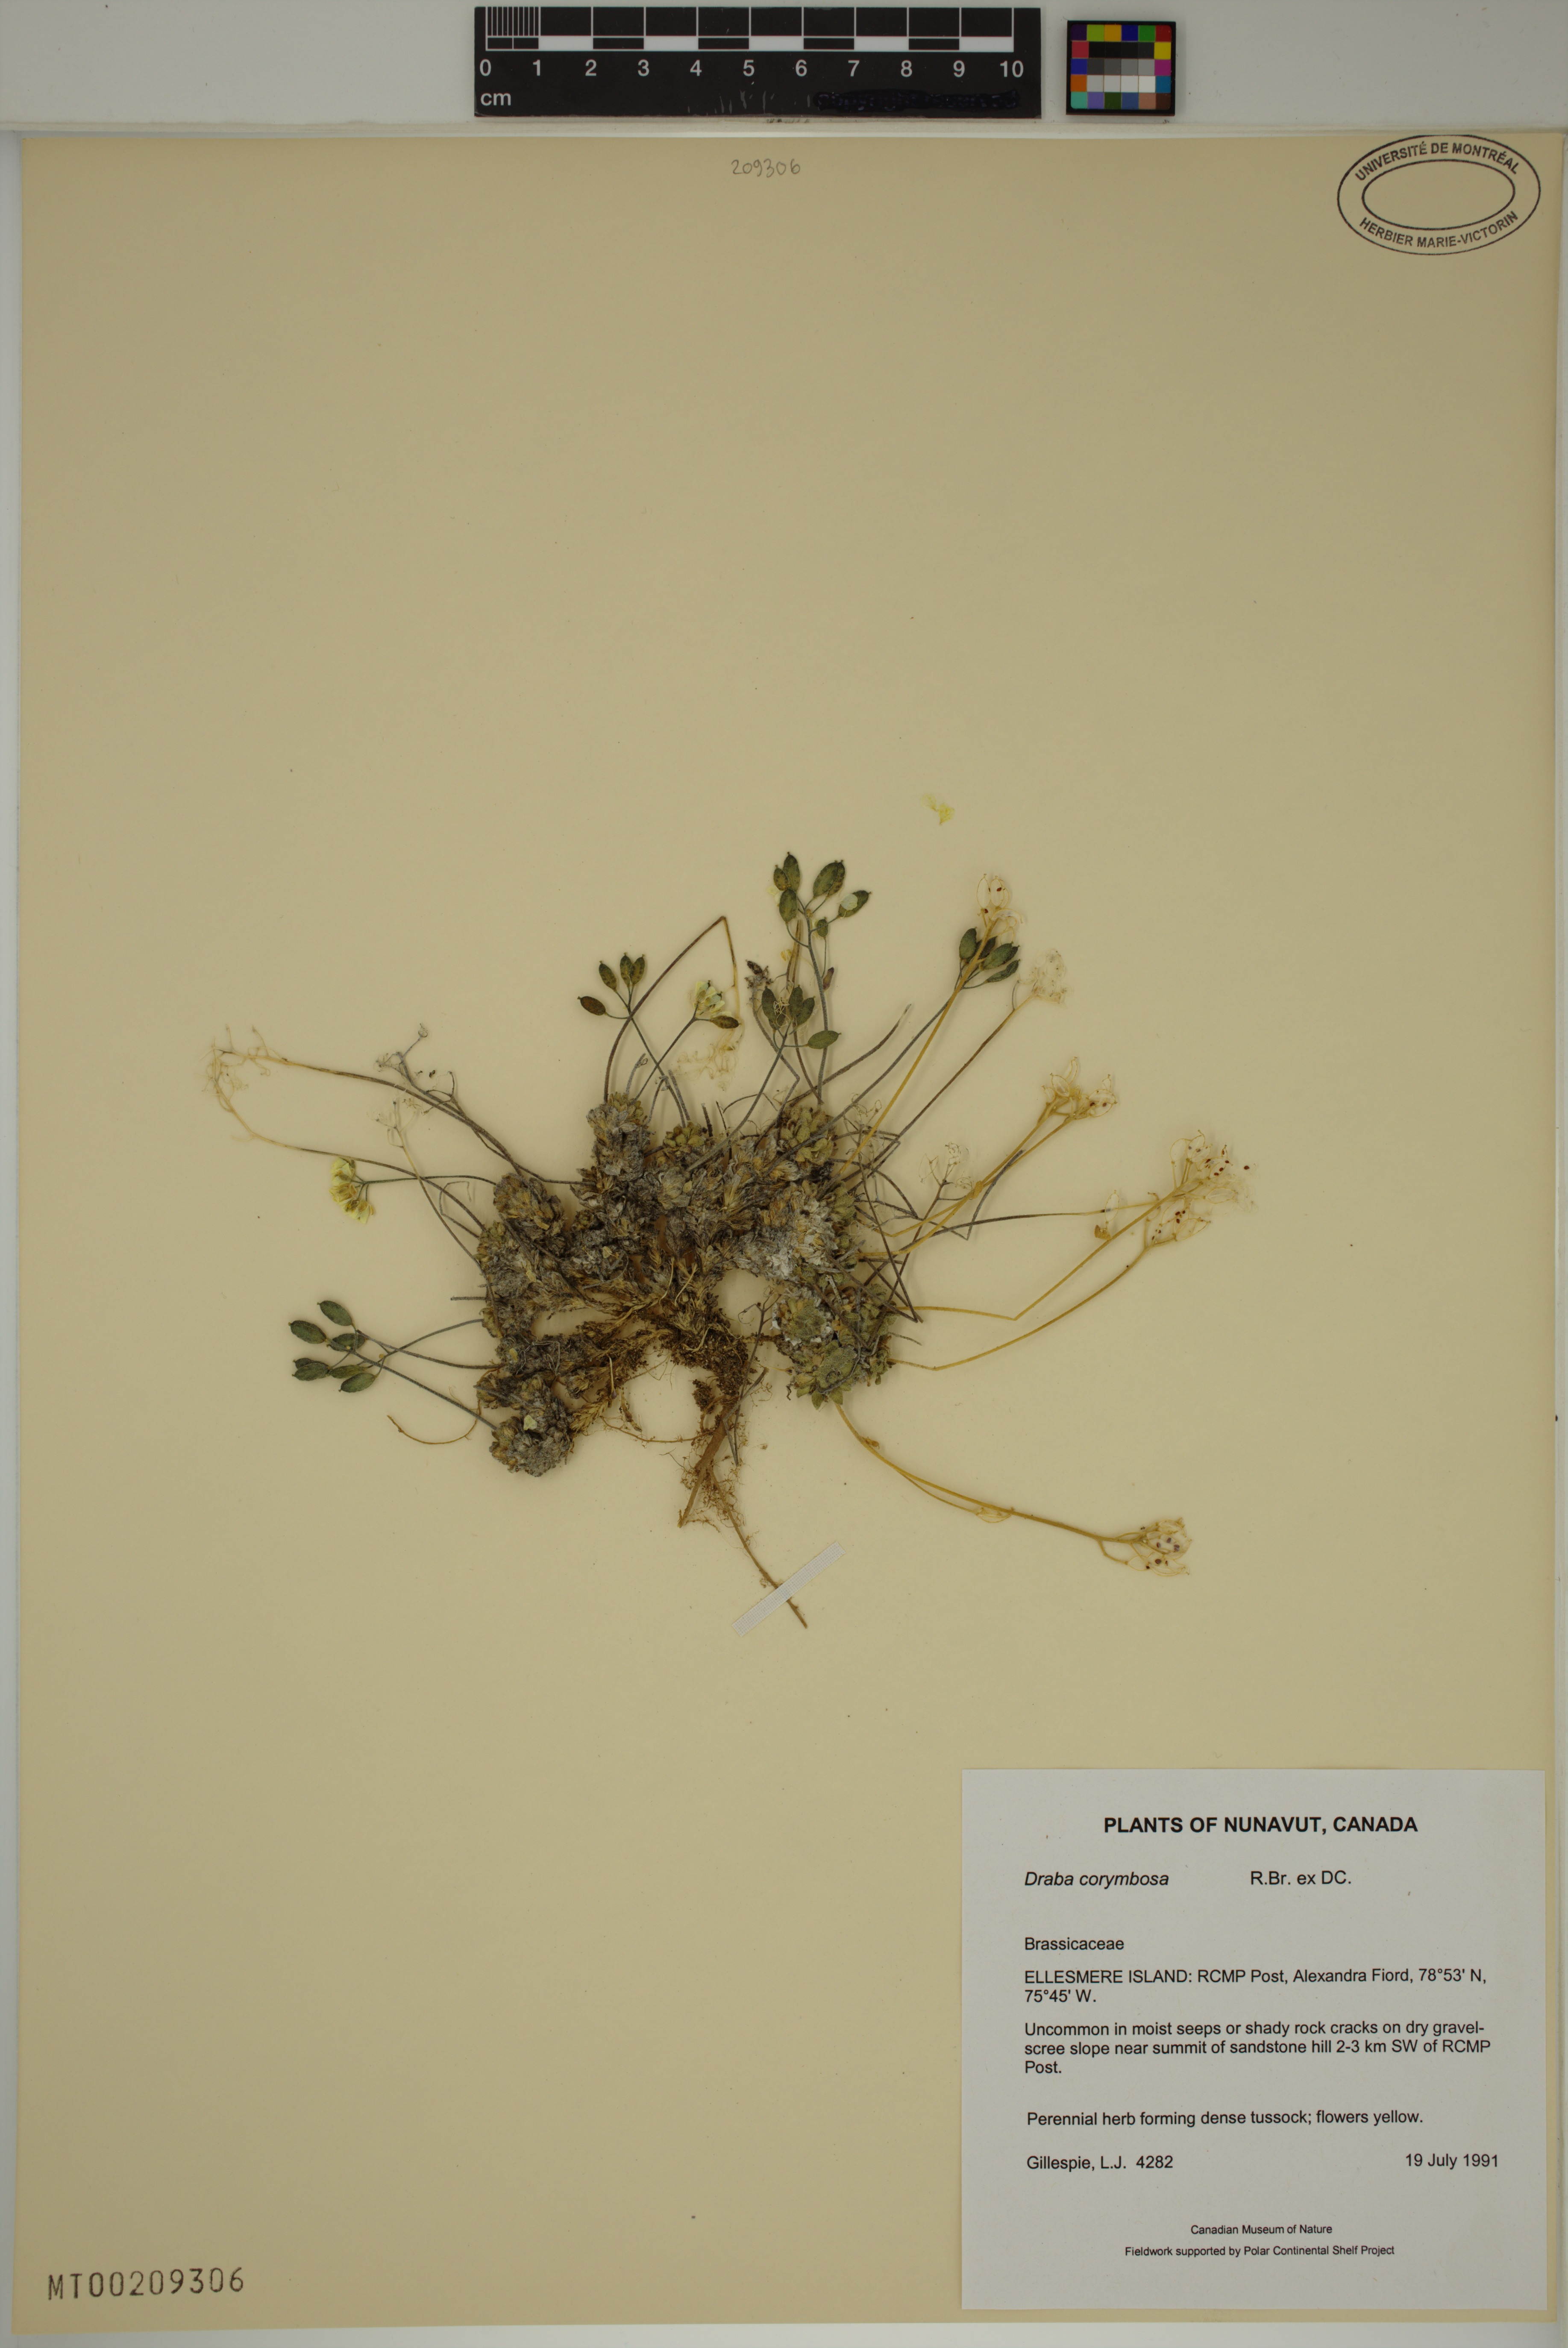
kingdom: Plantae
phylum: Tracheophyta
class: Magnoliopsida
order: Brassicales
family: Brassicaceae
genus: Draba
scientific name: Draba corymbosa
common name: Cushion whitlow-grass
